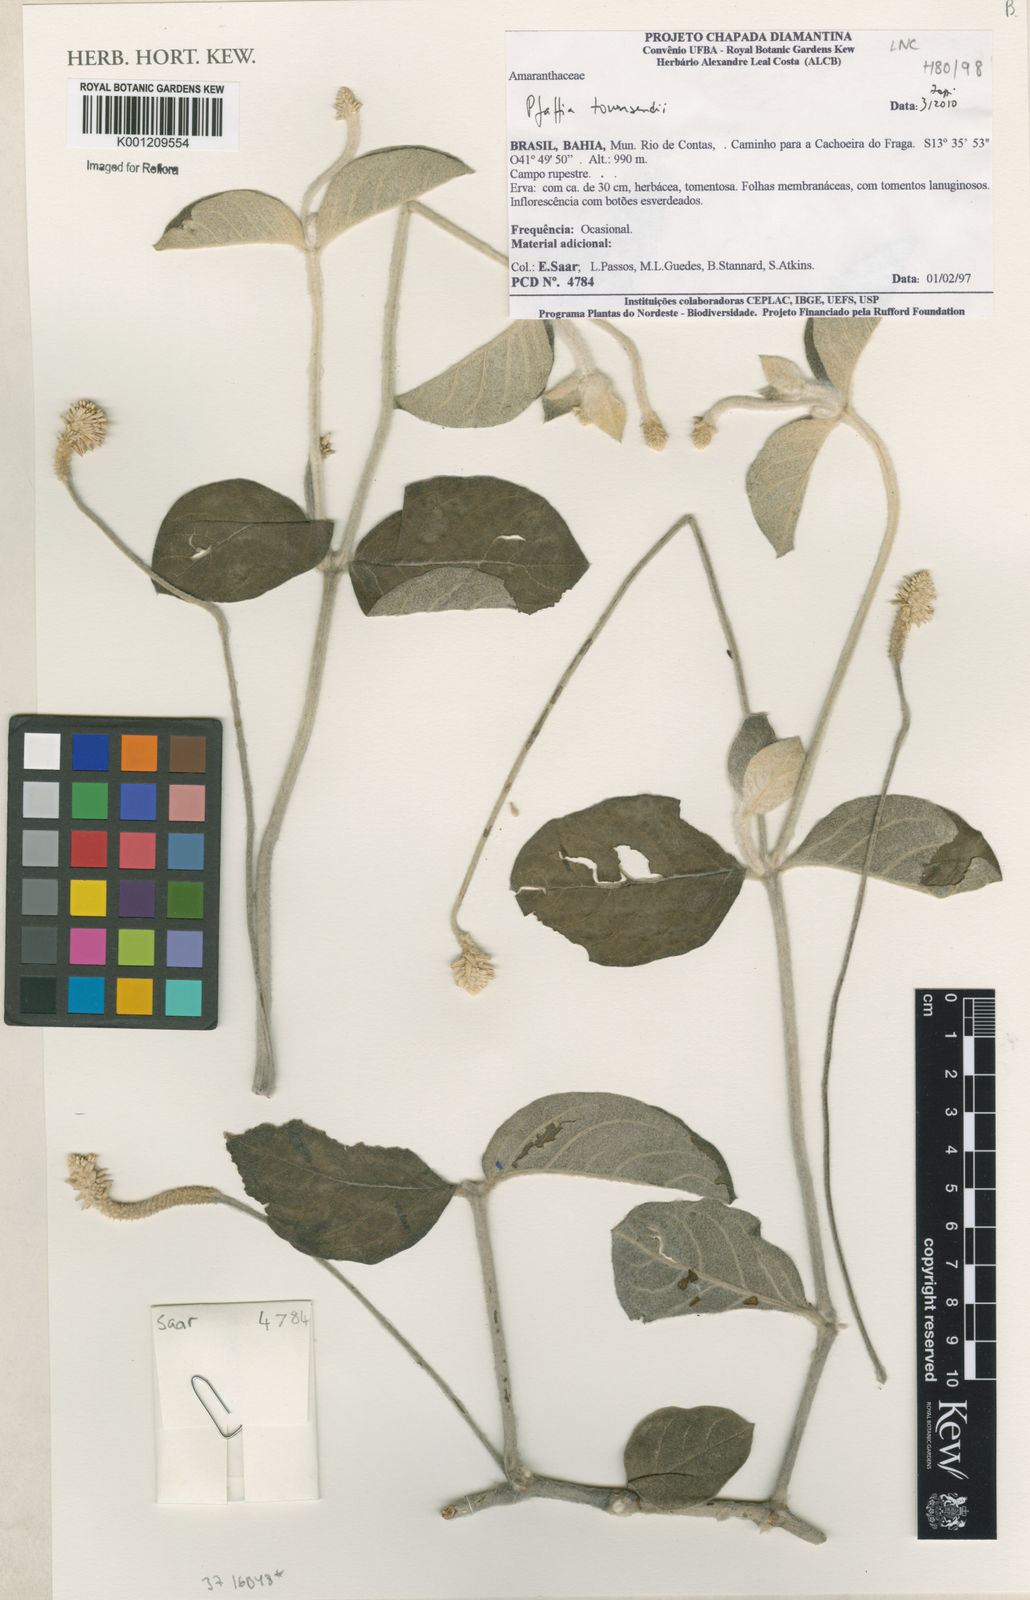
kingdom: Plantae
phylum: Tracheophyta
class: Magnoliopsida
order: Caryophyllales
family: Amaranthaceae
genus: Pfaffia
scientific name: Pfaffia townsendii
